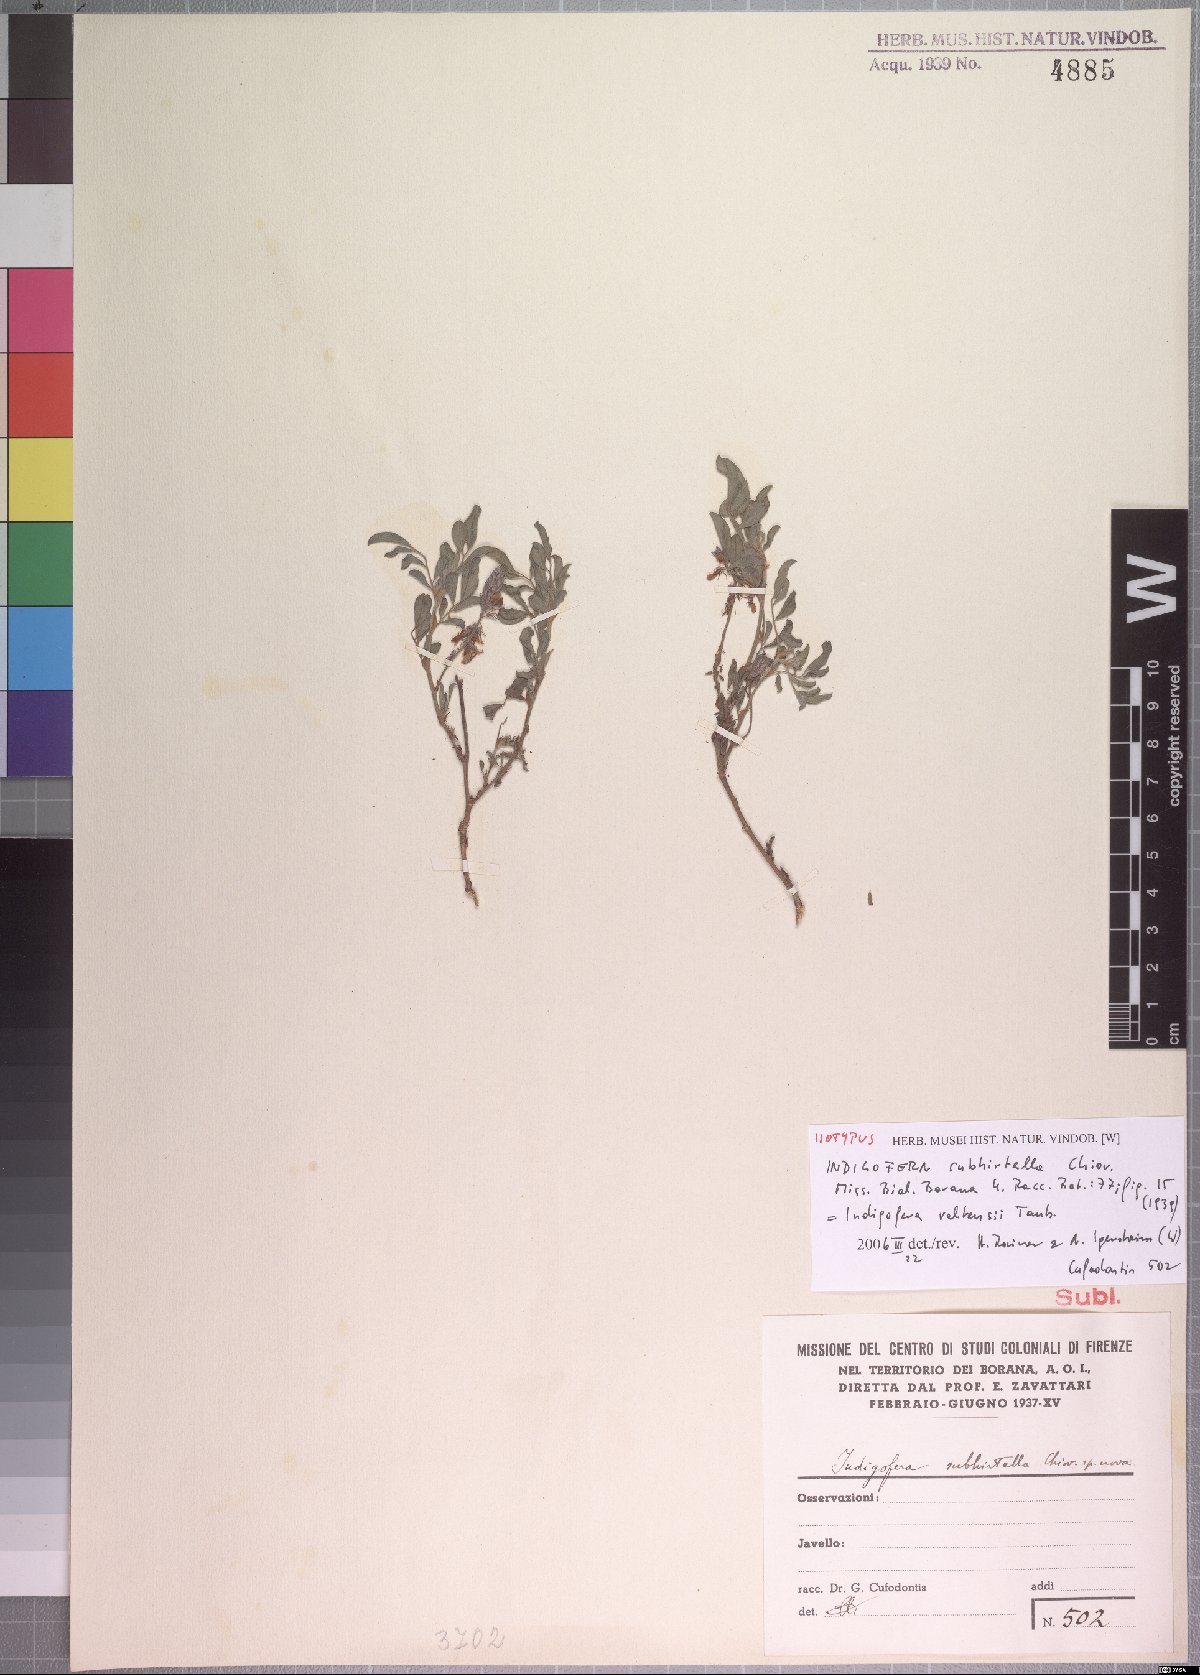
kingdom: Plantae
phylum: Tracheophyta
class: Magnoliopsida
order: Fabales
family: Fabaceae
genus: Indigofera
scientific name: Indigofera volkensii
